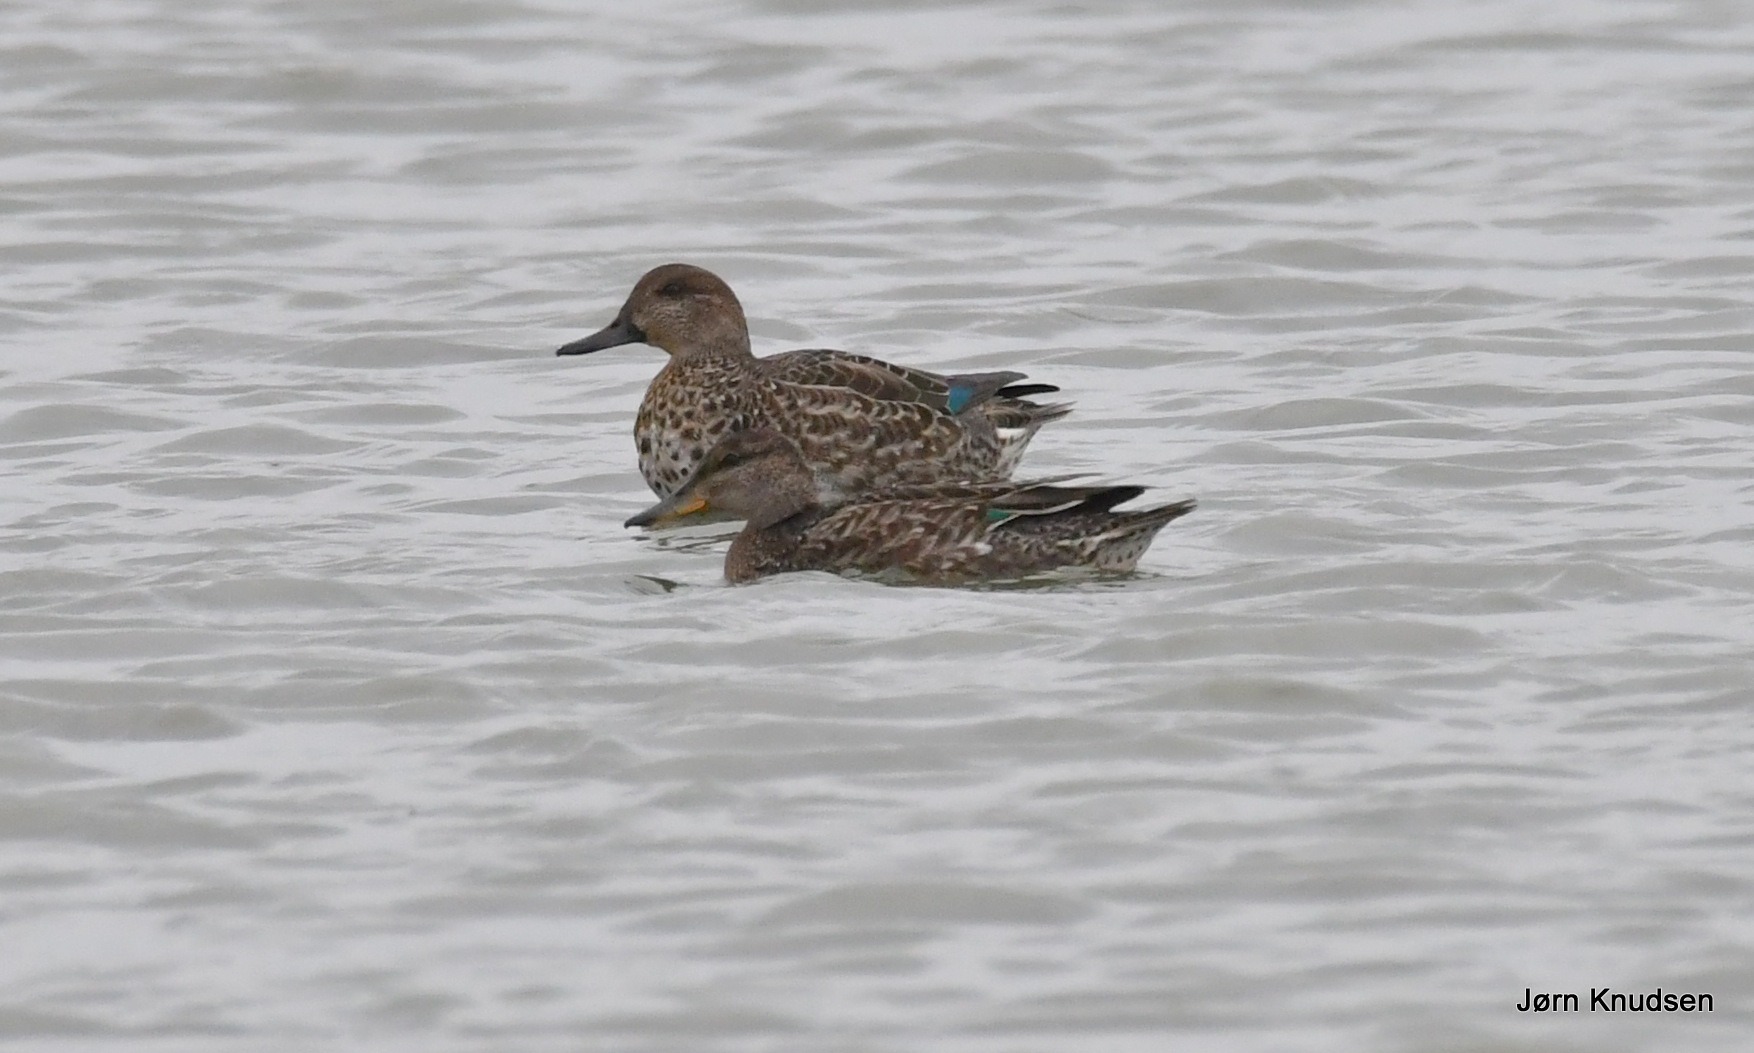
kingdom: Animalia
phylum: Chordata
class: Aves
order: Anseriformes
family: Anatidae
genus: Anas
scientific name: Anas crecca
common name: Krikand
